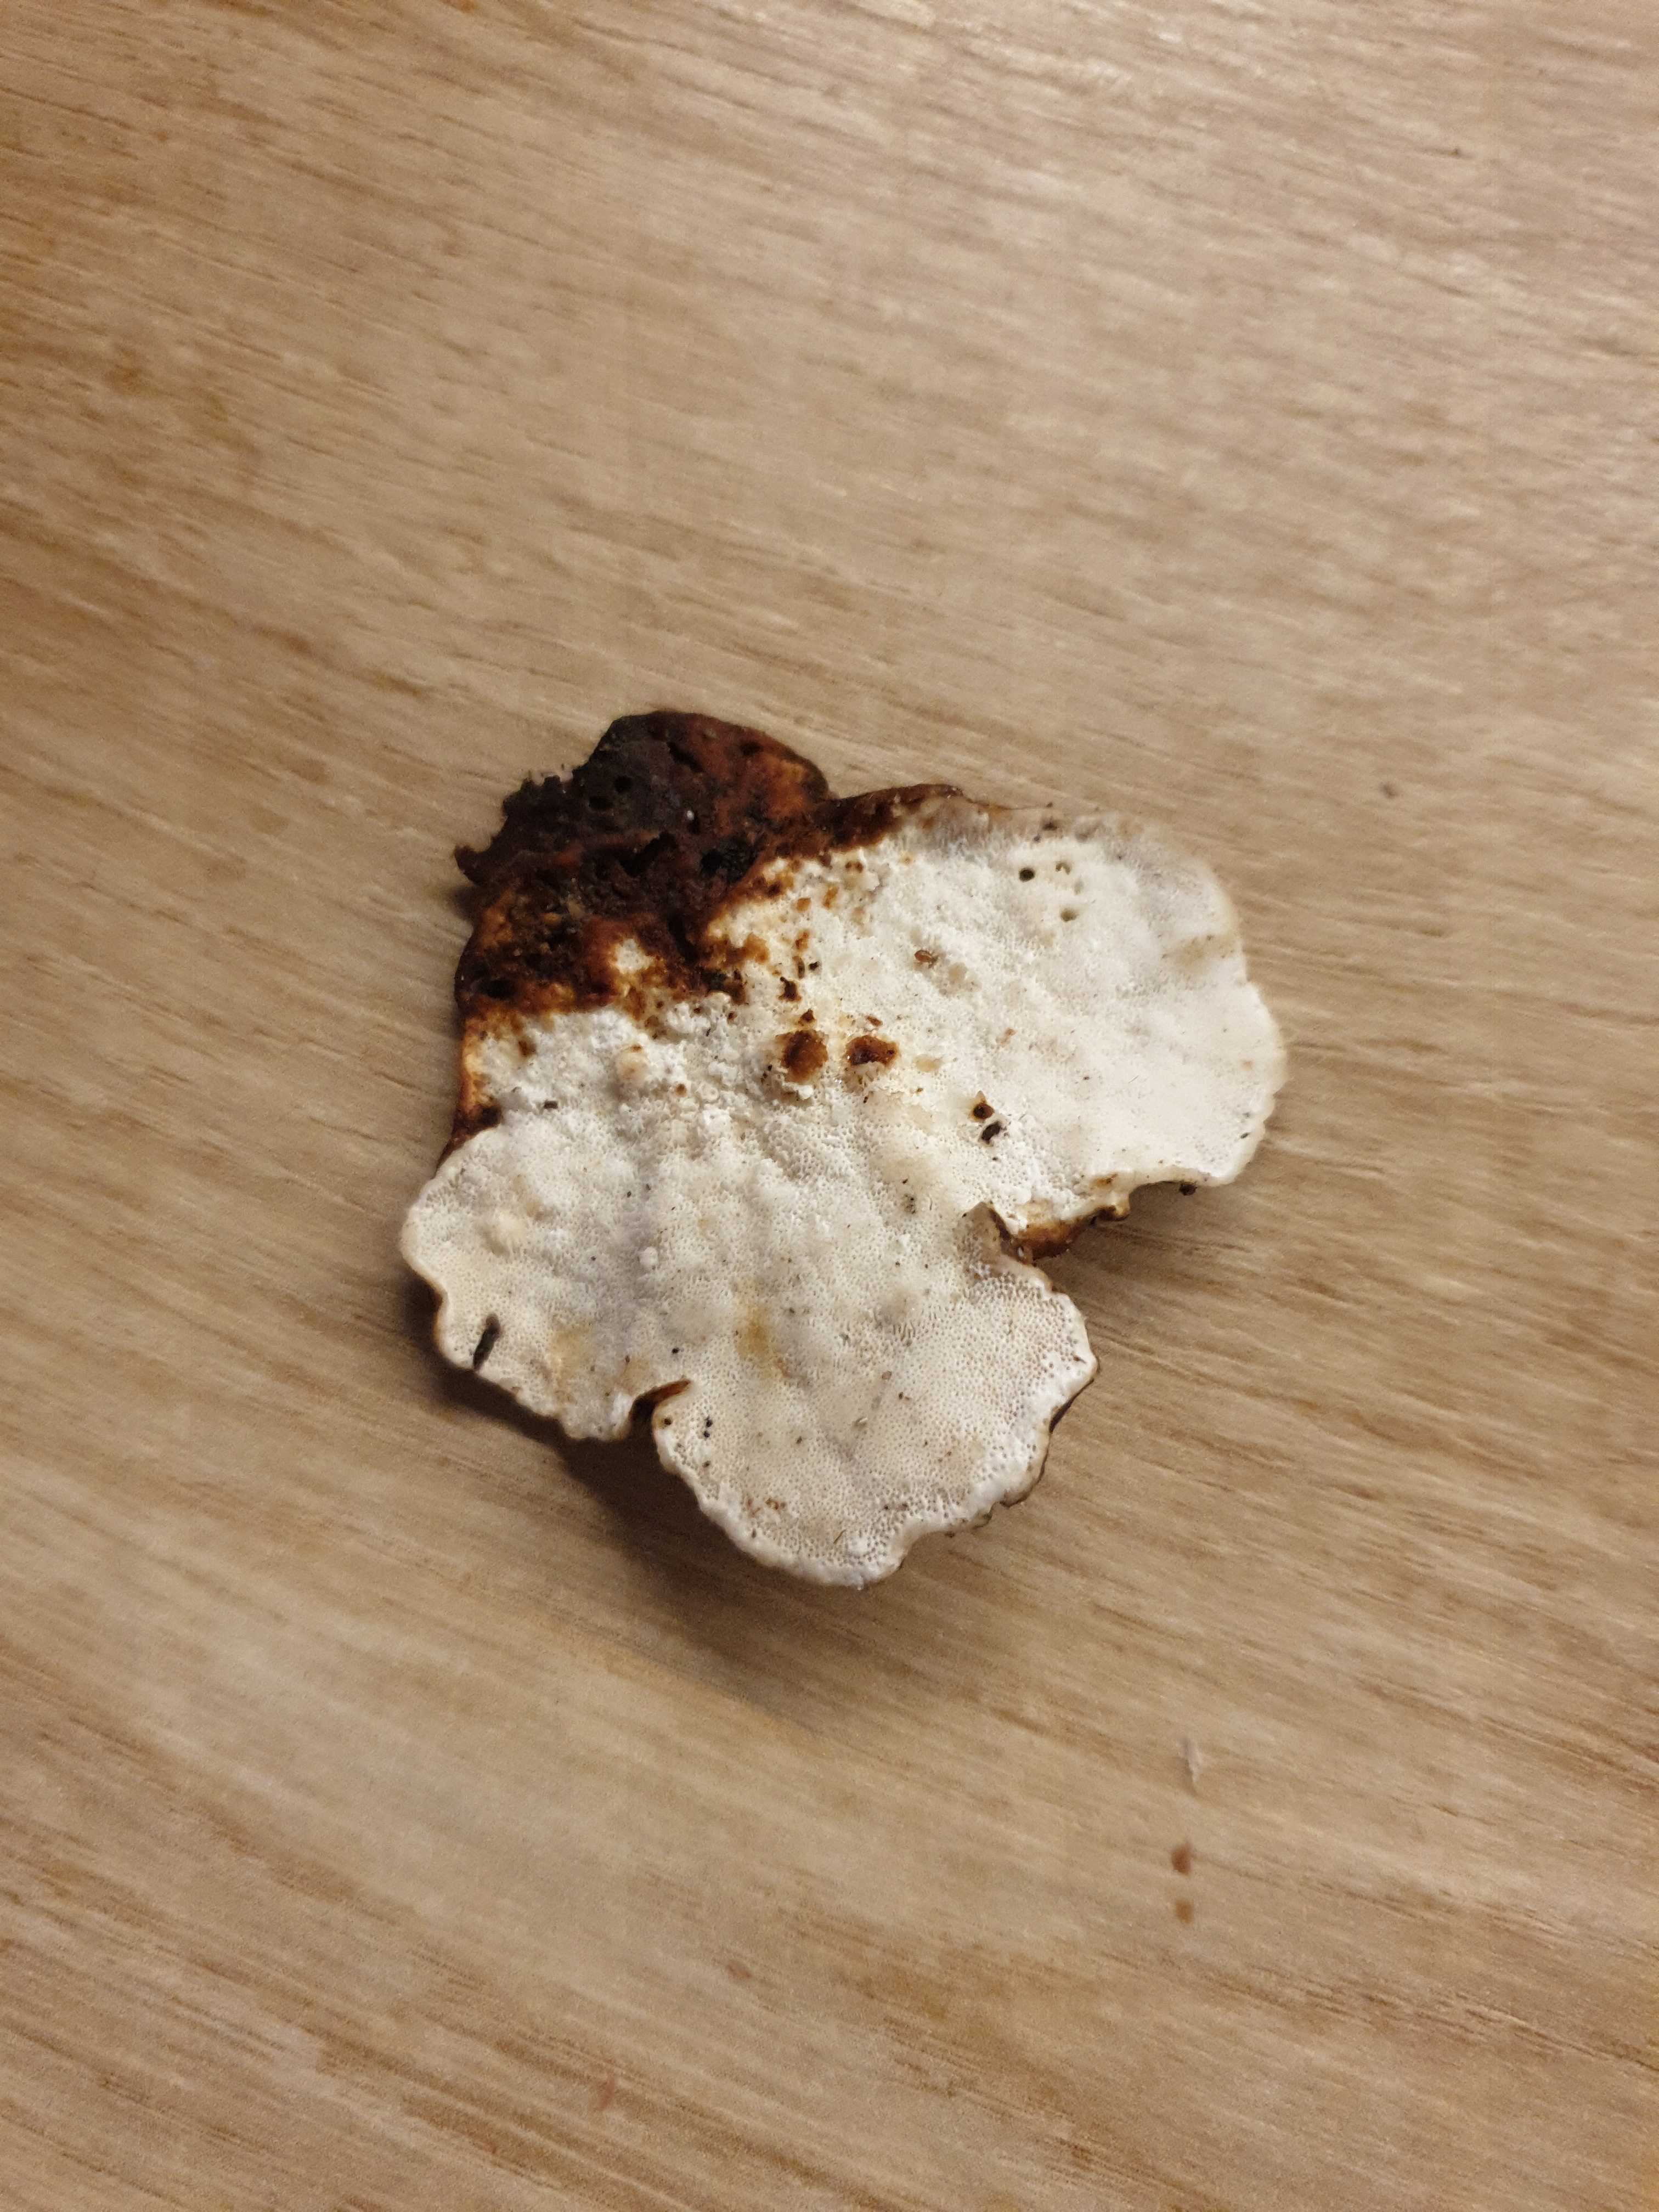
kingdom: Fungi
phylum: Basidiomycota
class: Agaricomycetes
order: Polyporales
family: Polyporaceae
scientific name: Polyporaceae
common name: poresvampfamilien
